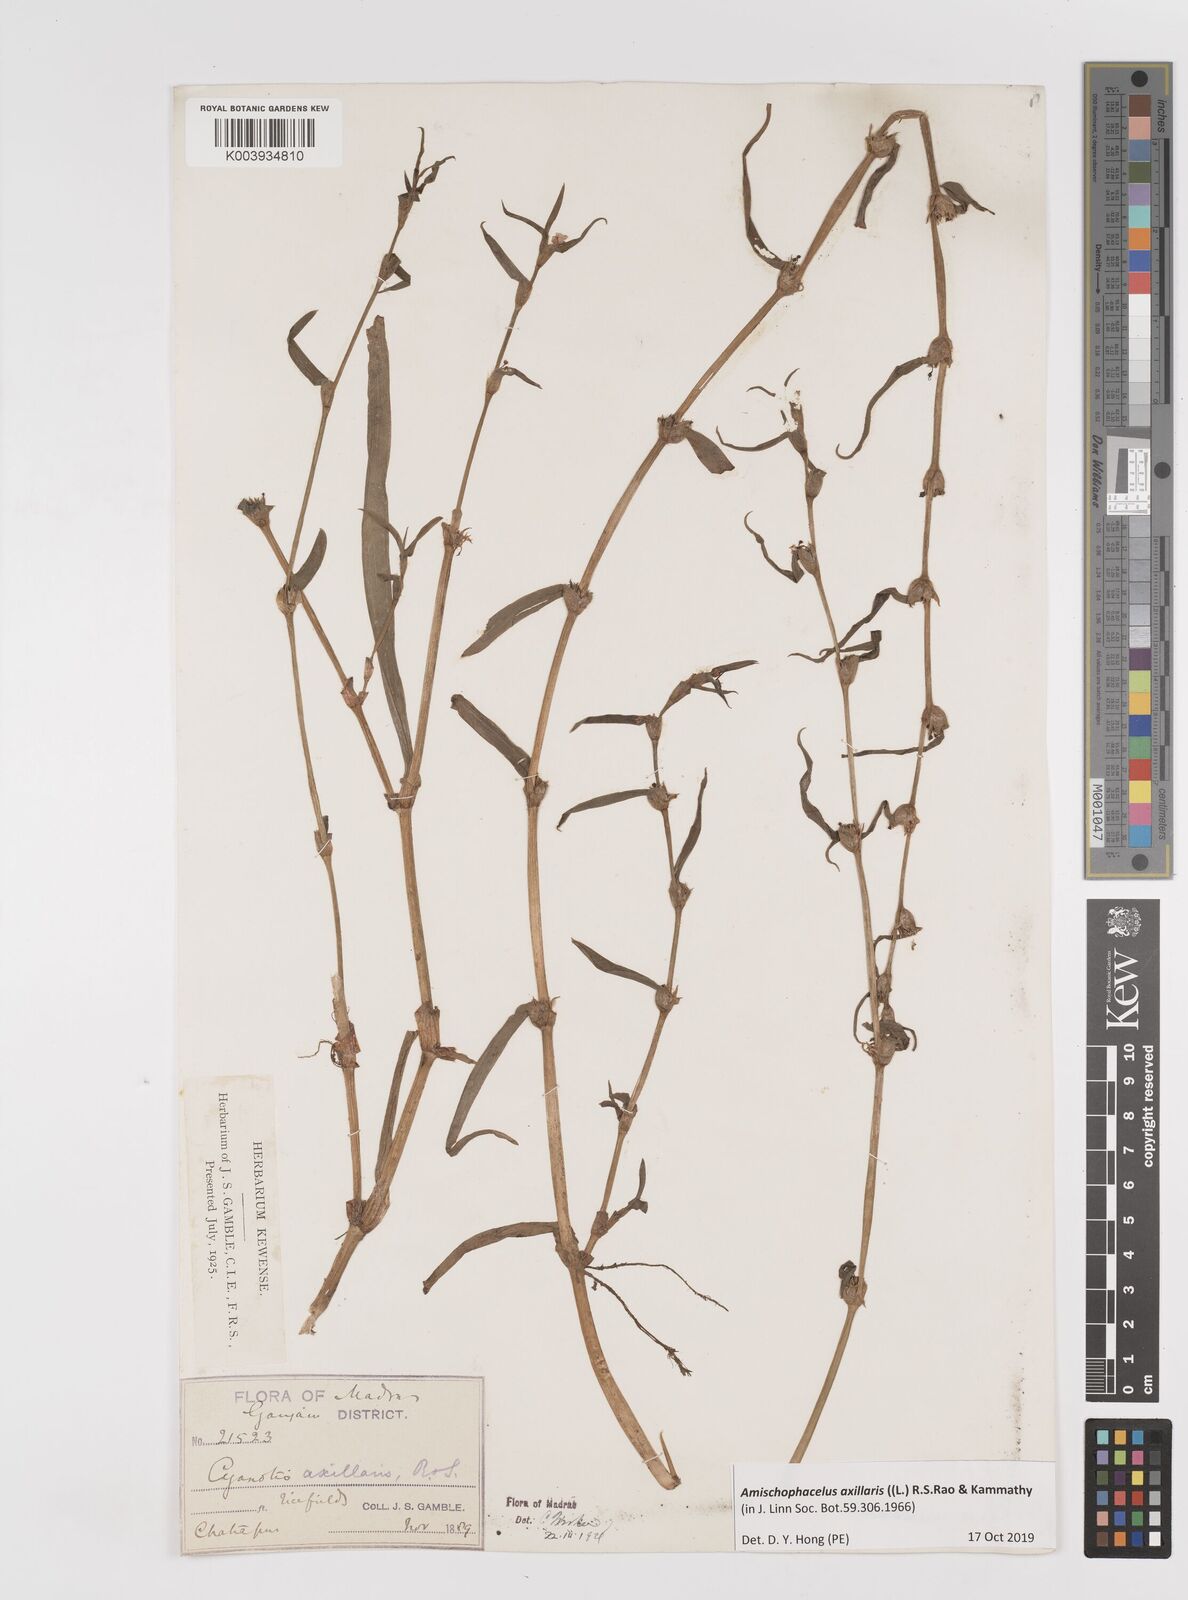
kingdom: Plantae
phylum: Tracheophyta
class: Liliopsida
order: Commelinales
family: Commelinaceae
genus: Cyanotis
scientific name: Cyanotis axillaris
